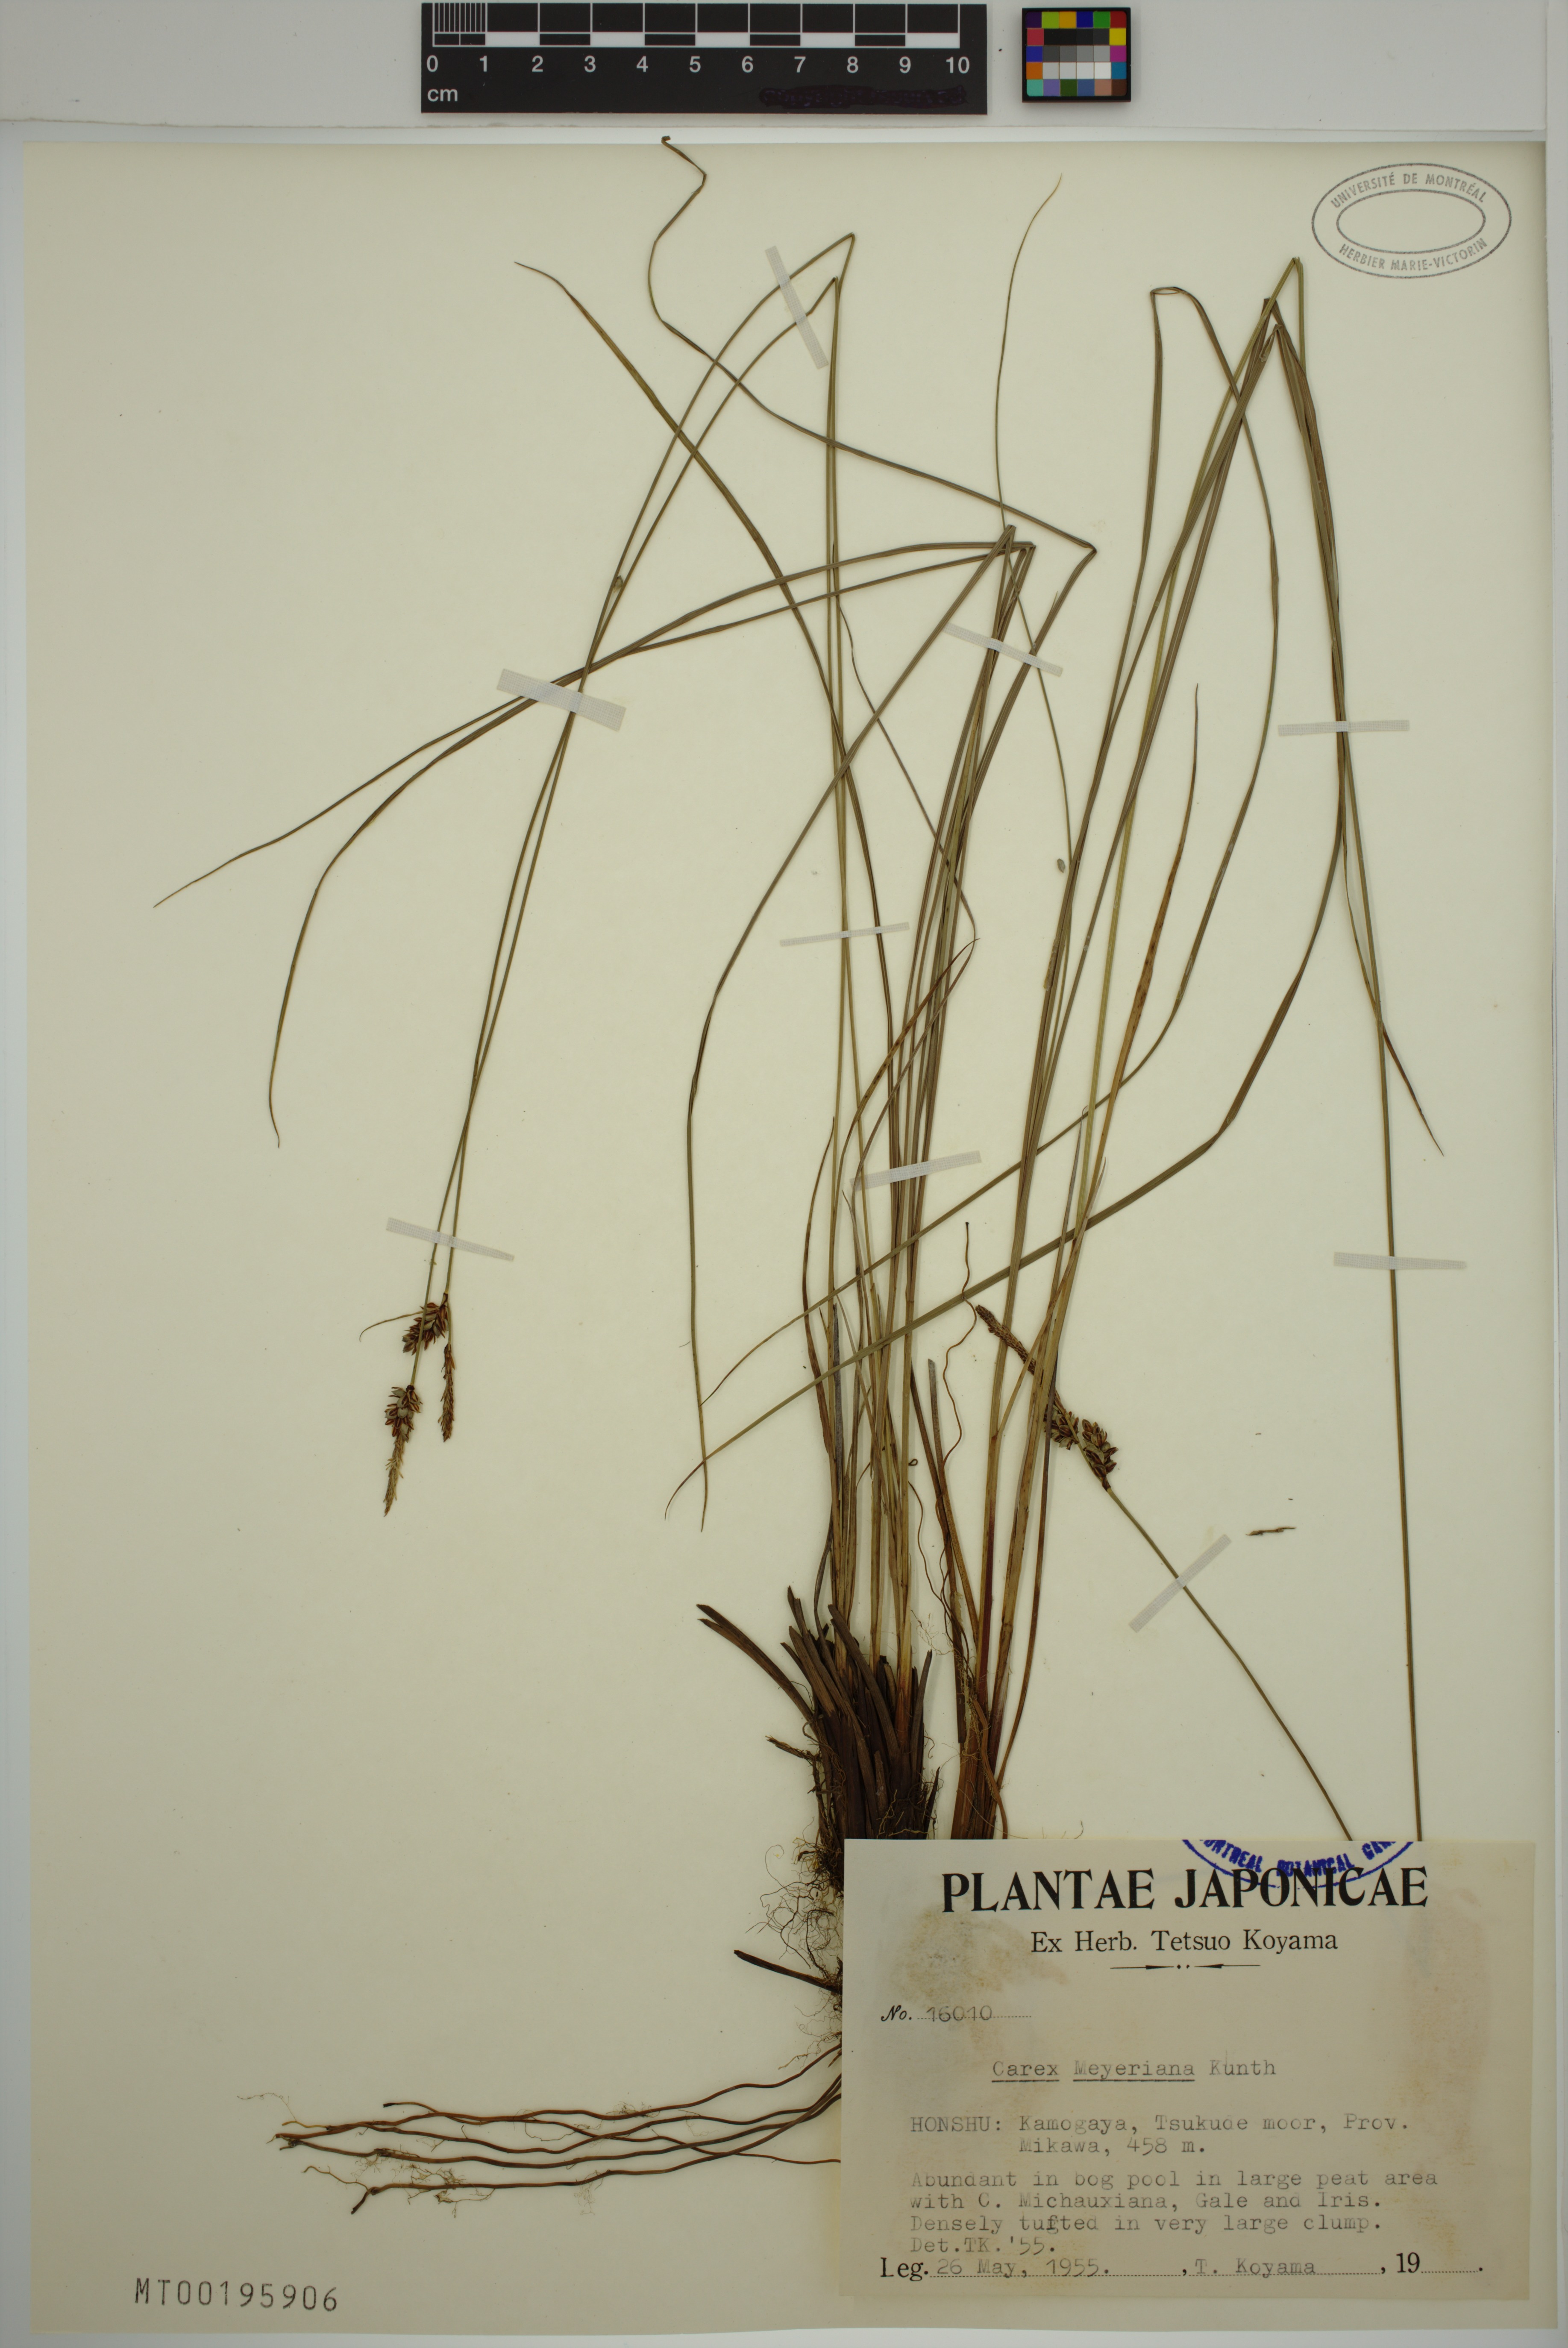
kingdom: Plantae
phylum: Tracheophyta
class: Liliopsida
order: Poales
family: Cyperaceae
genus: Carex
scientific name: Carex meyeriana
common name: Wula sedge
